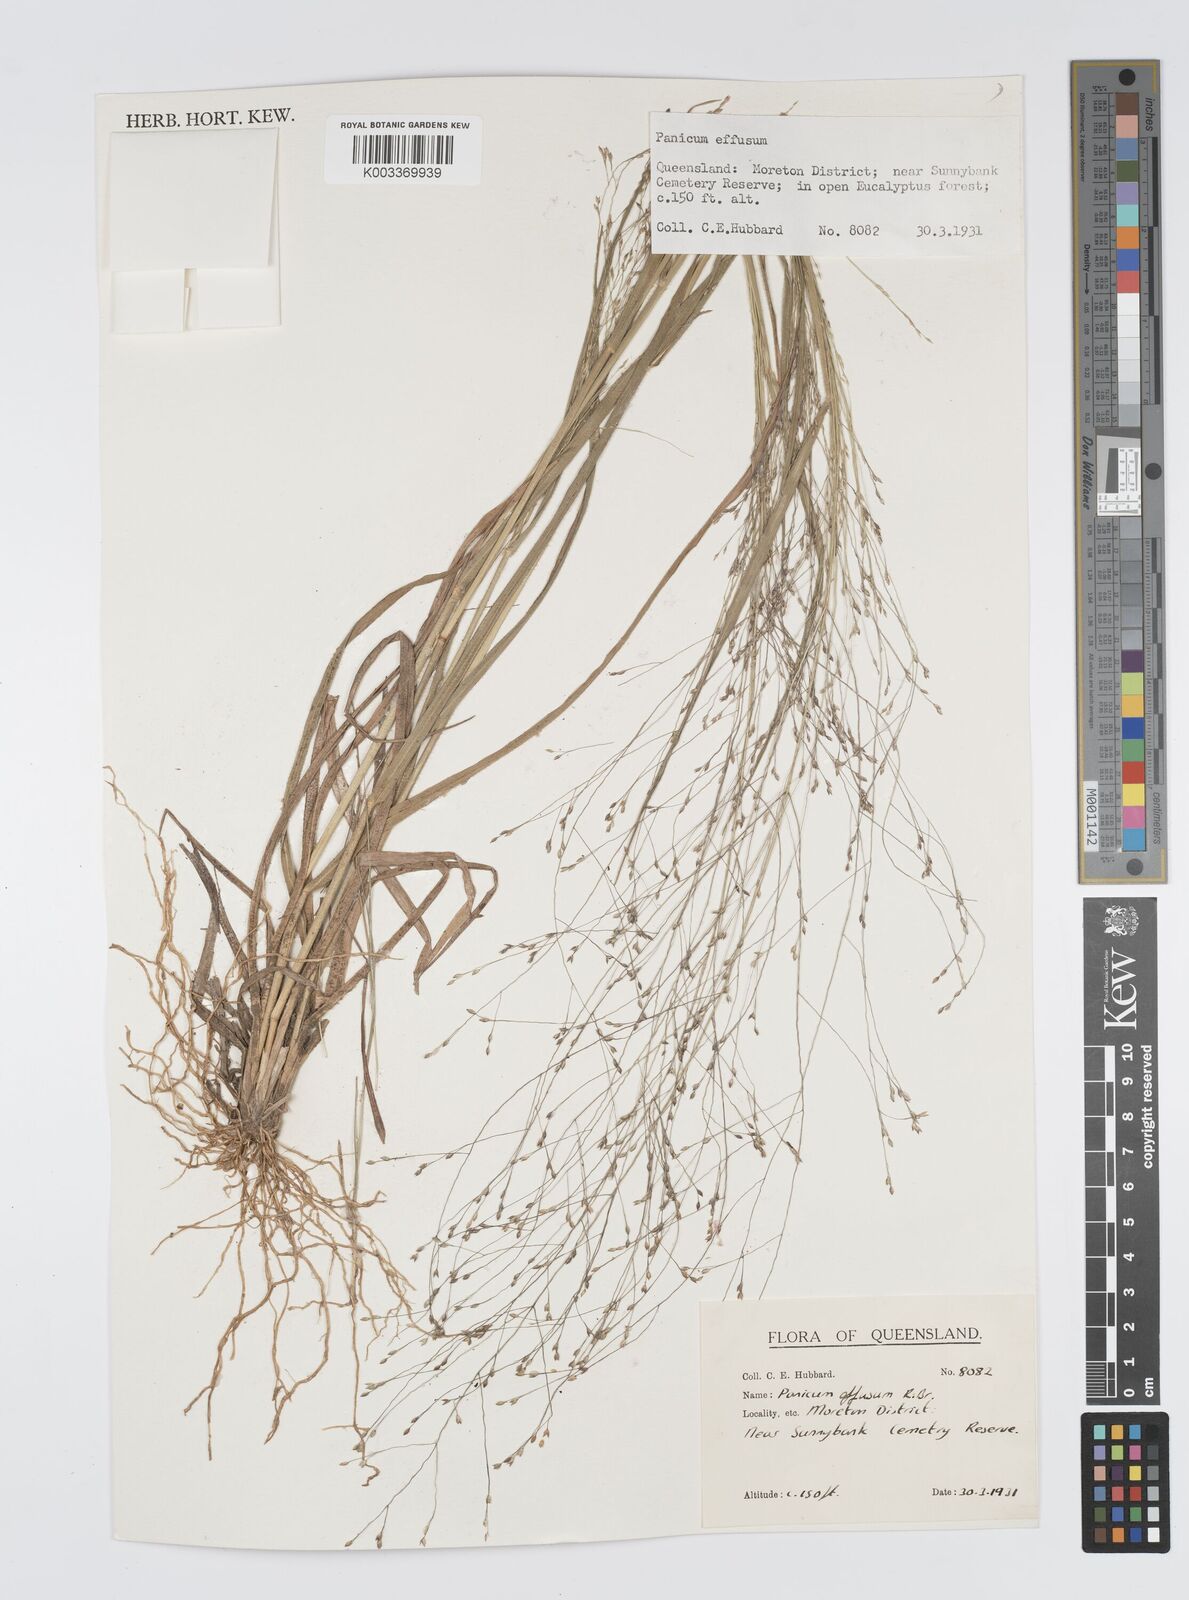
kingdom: Plantae
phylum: Tracheophyta
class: Liliopsida
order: Poales
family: Poaceae
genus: Panicum
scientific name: Panicum effusum
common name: Hairy panic grass
